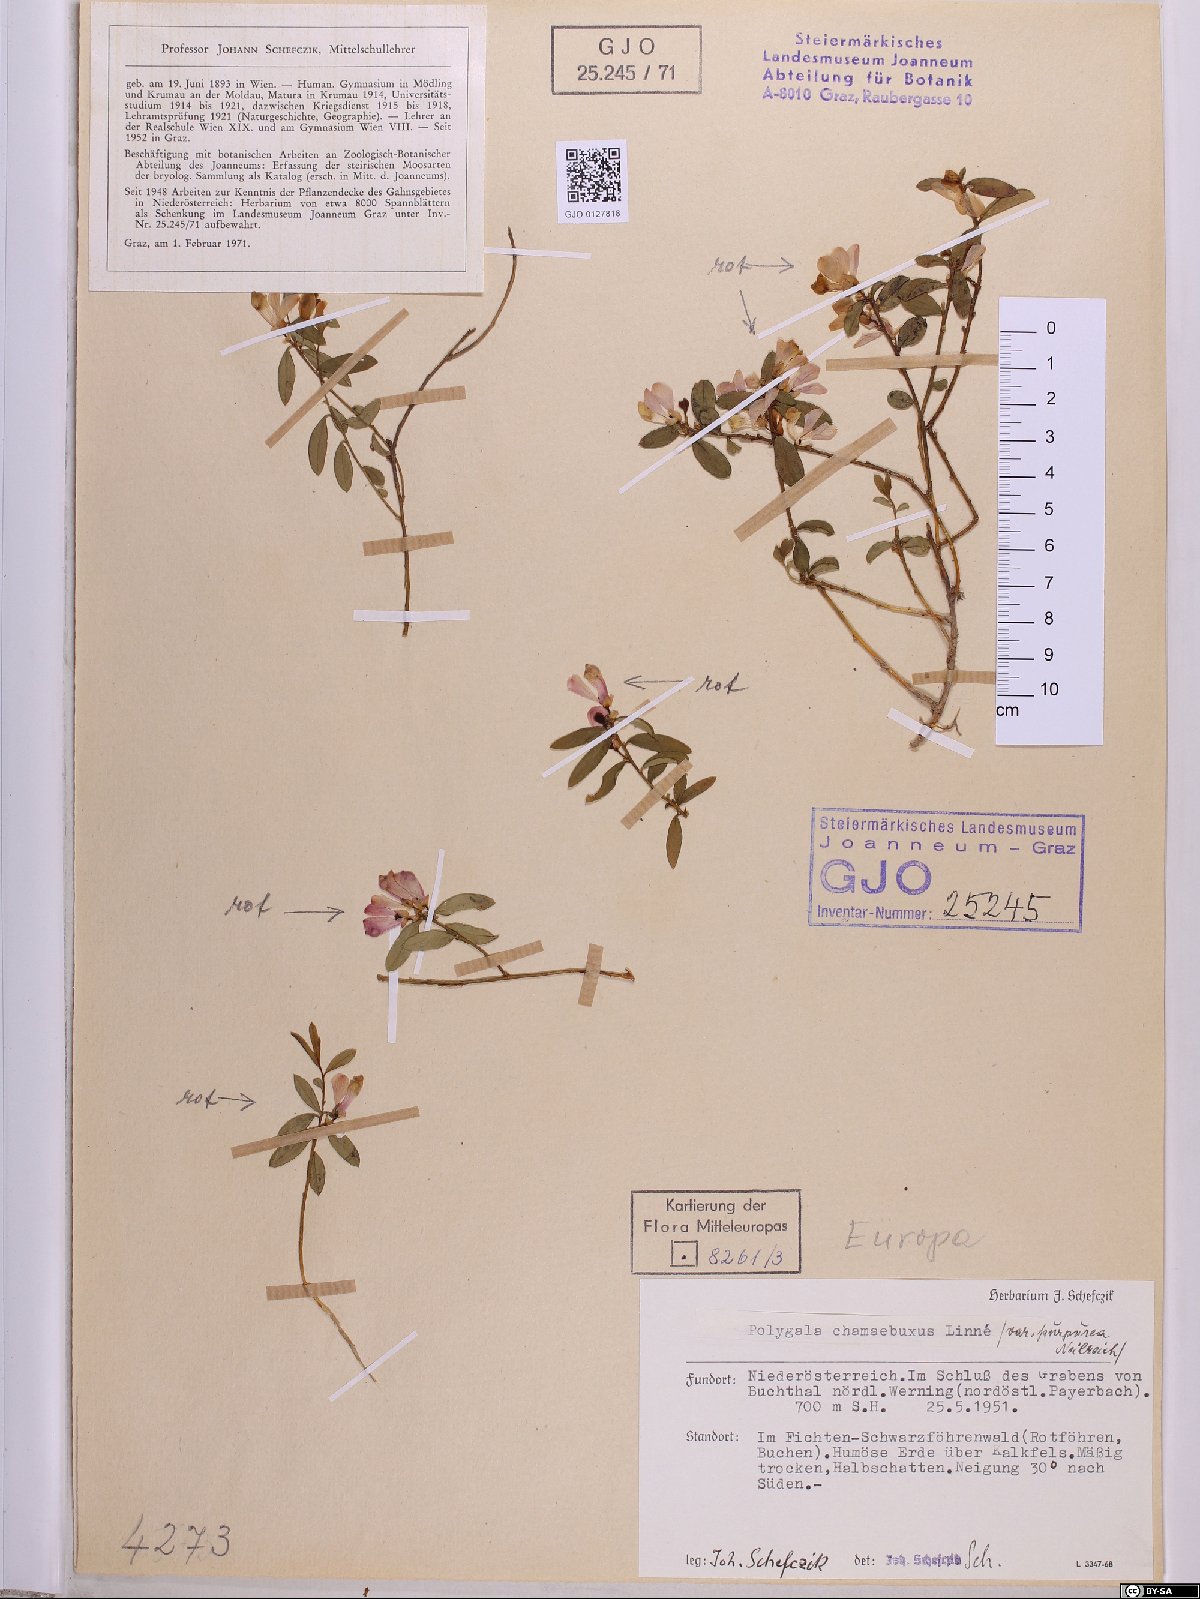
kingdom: Plantae
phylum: Tracheophyta
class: Magnoliopsida
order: Fabales
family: Polygalaceae
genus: Polygaloides
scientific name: Polygaloides chamaebuxus
